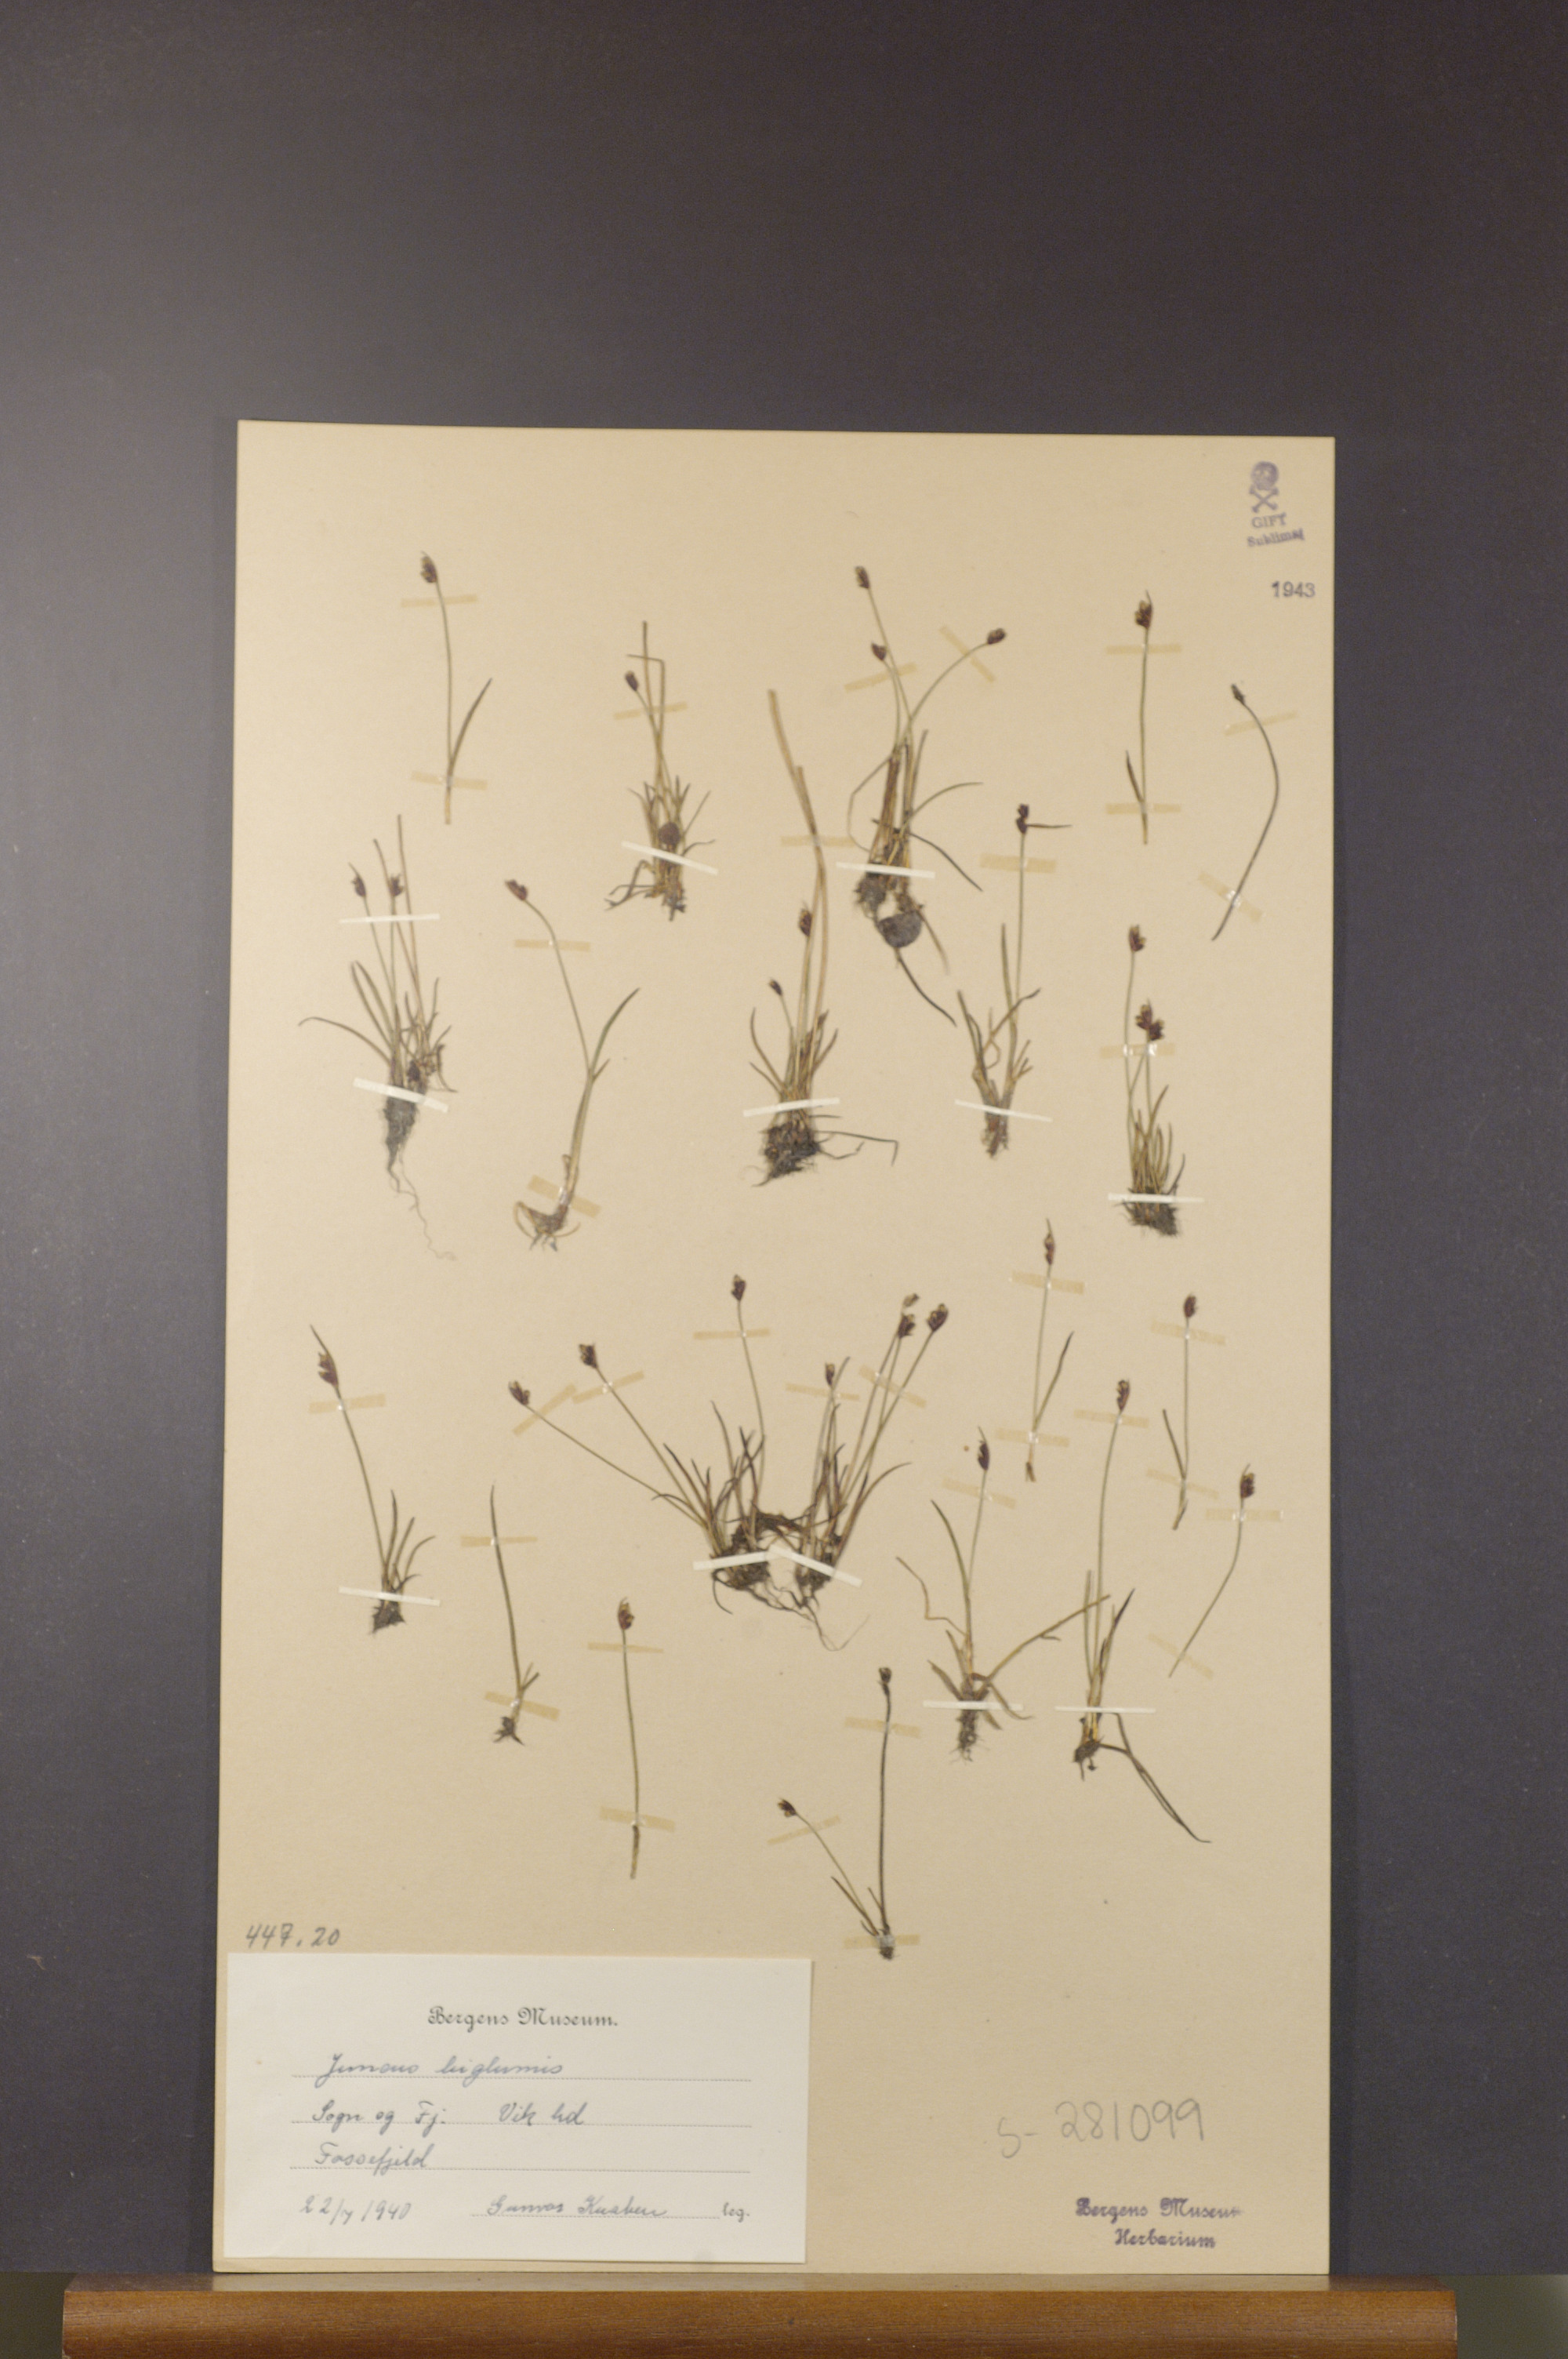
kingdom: Plantae
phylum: Tracheophyta
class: Liliopsida
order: Poales
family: Juncaceae
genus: Juncus
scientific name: Juncus biglumis
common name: Two-flowered rush
